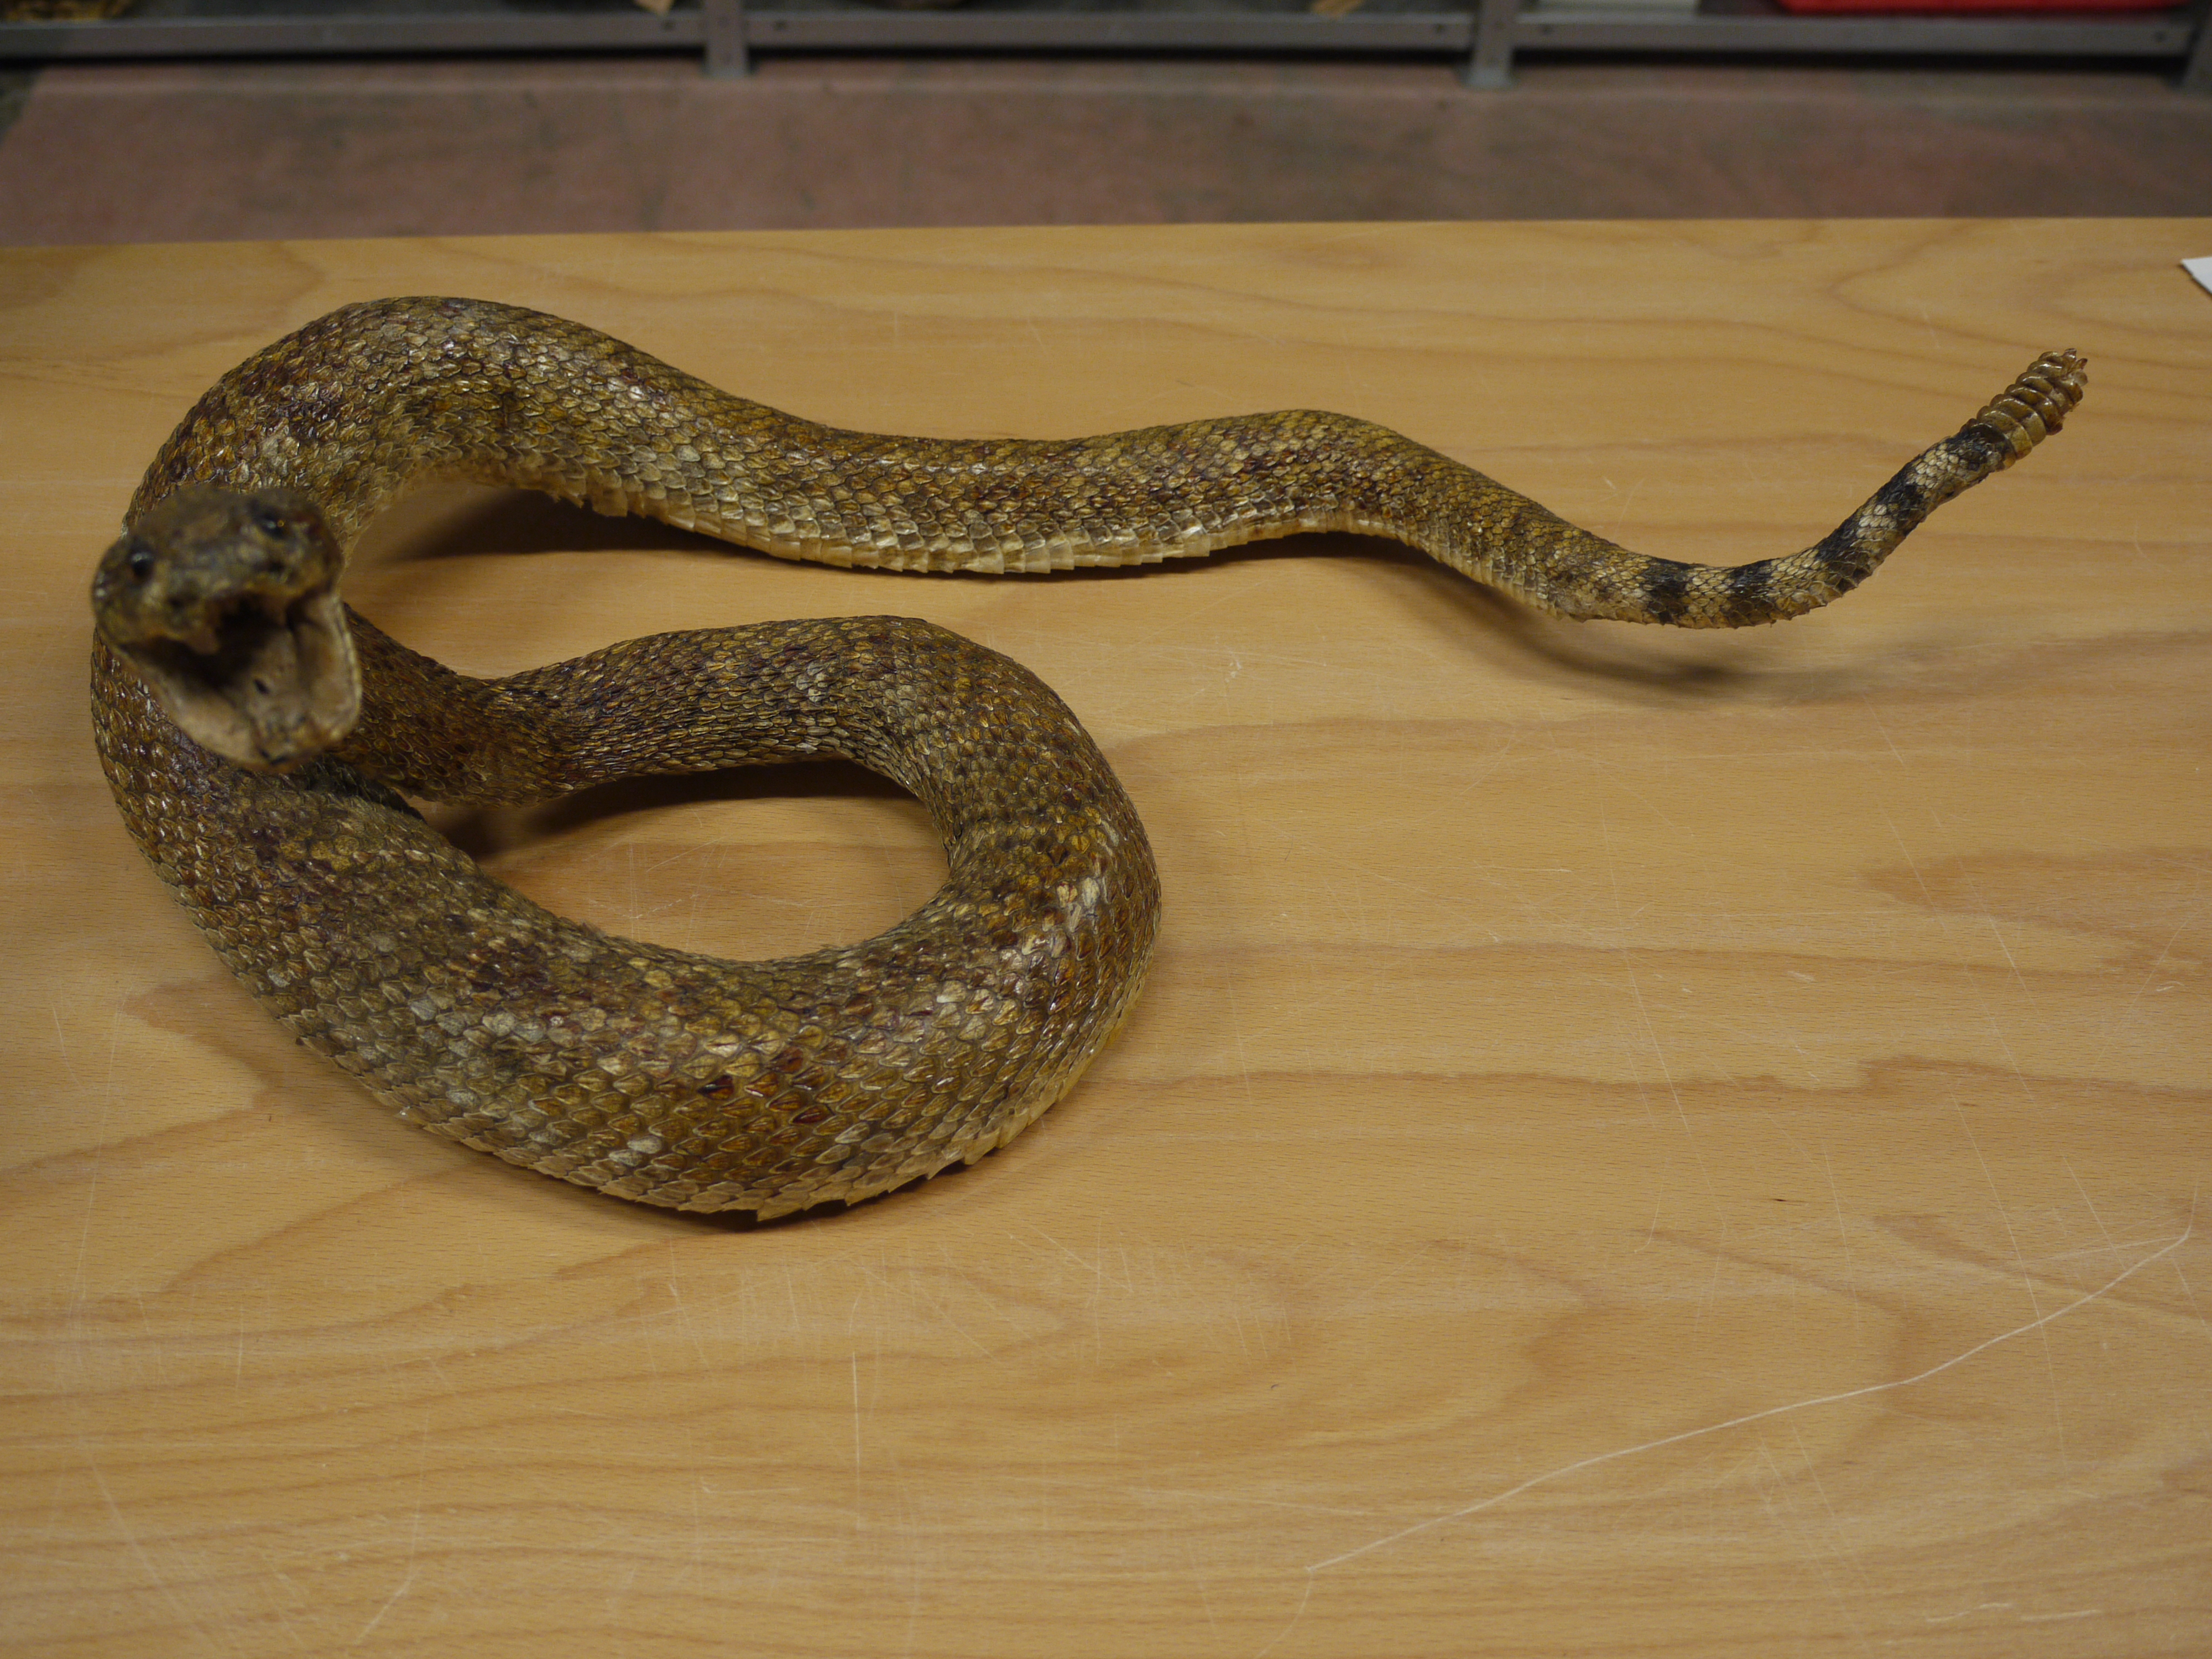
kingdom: Animalia
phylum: Chordata
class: Squamata
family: Viperidae
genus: Crotalus
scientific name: Crotalus atrox
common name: Western diamond-backed rattlesnake
